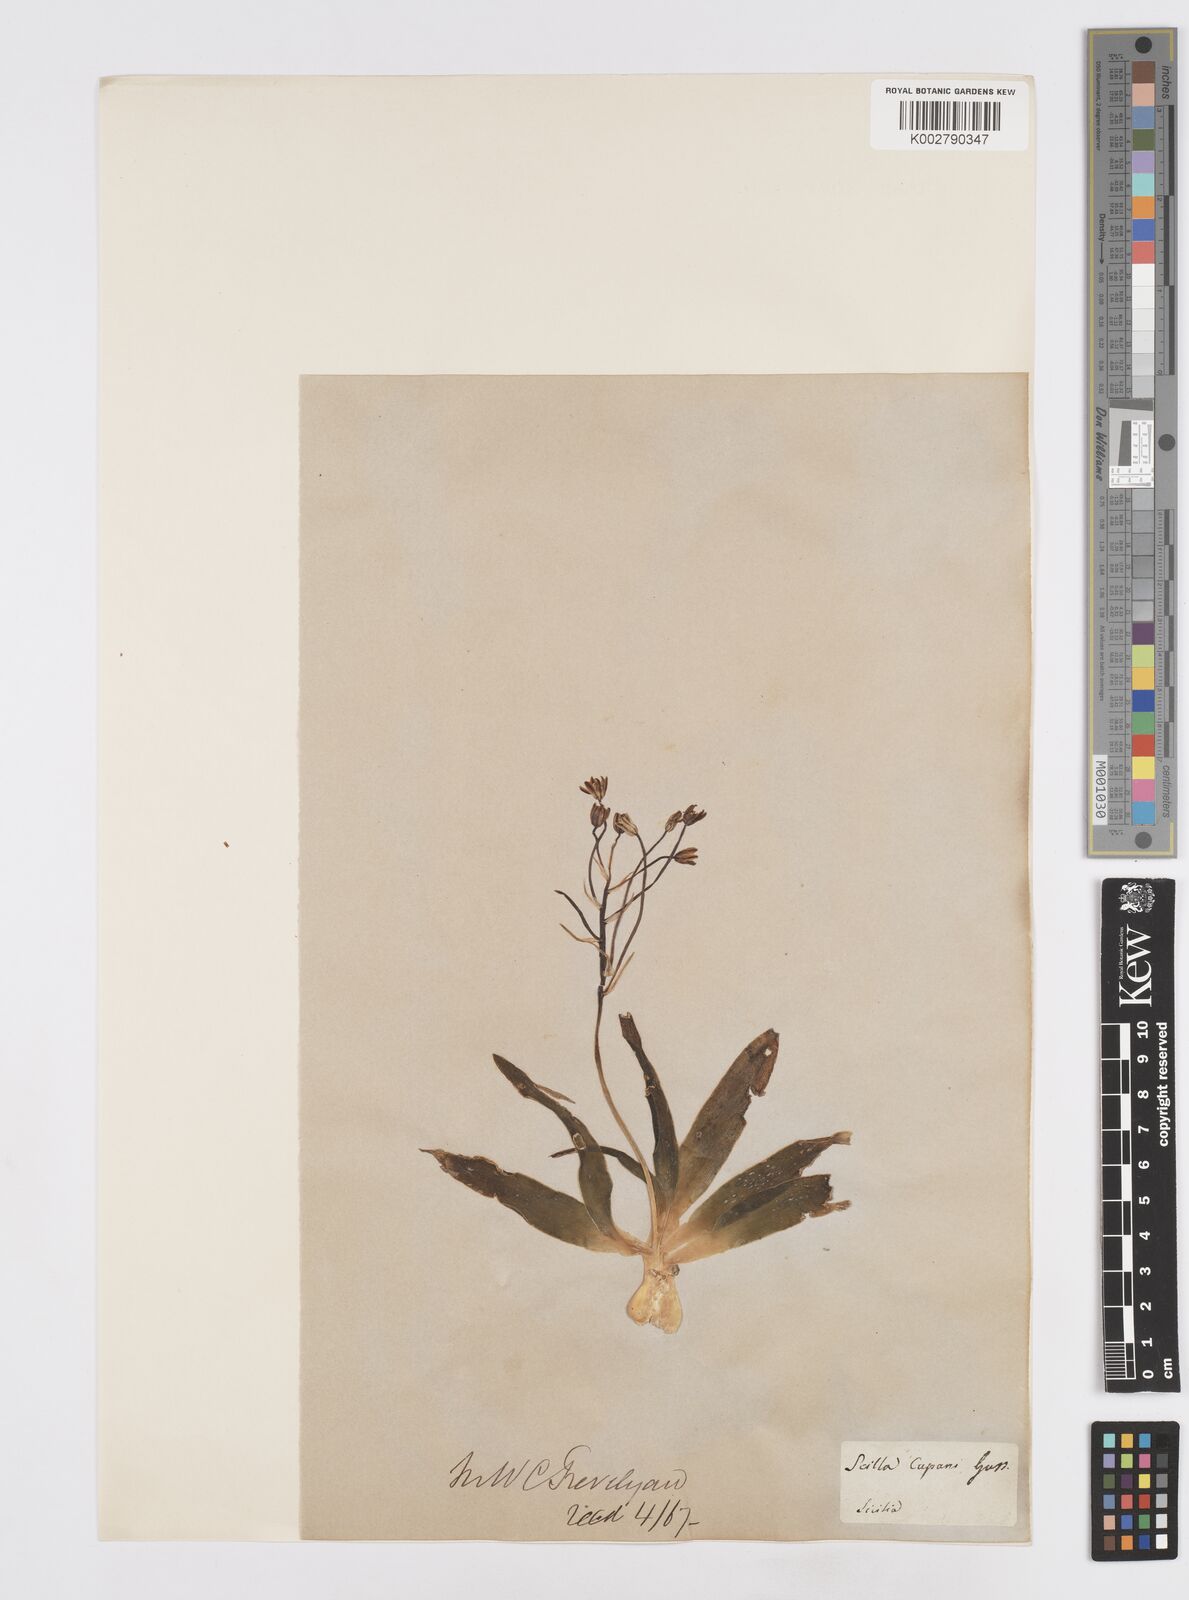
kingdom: Plantae
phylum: Tracheophyta
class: Liliopsida
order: Asparagales
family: Asparagaceae
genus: Scilla
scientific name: Scilla peruviana
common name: Portuguese squill
